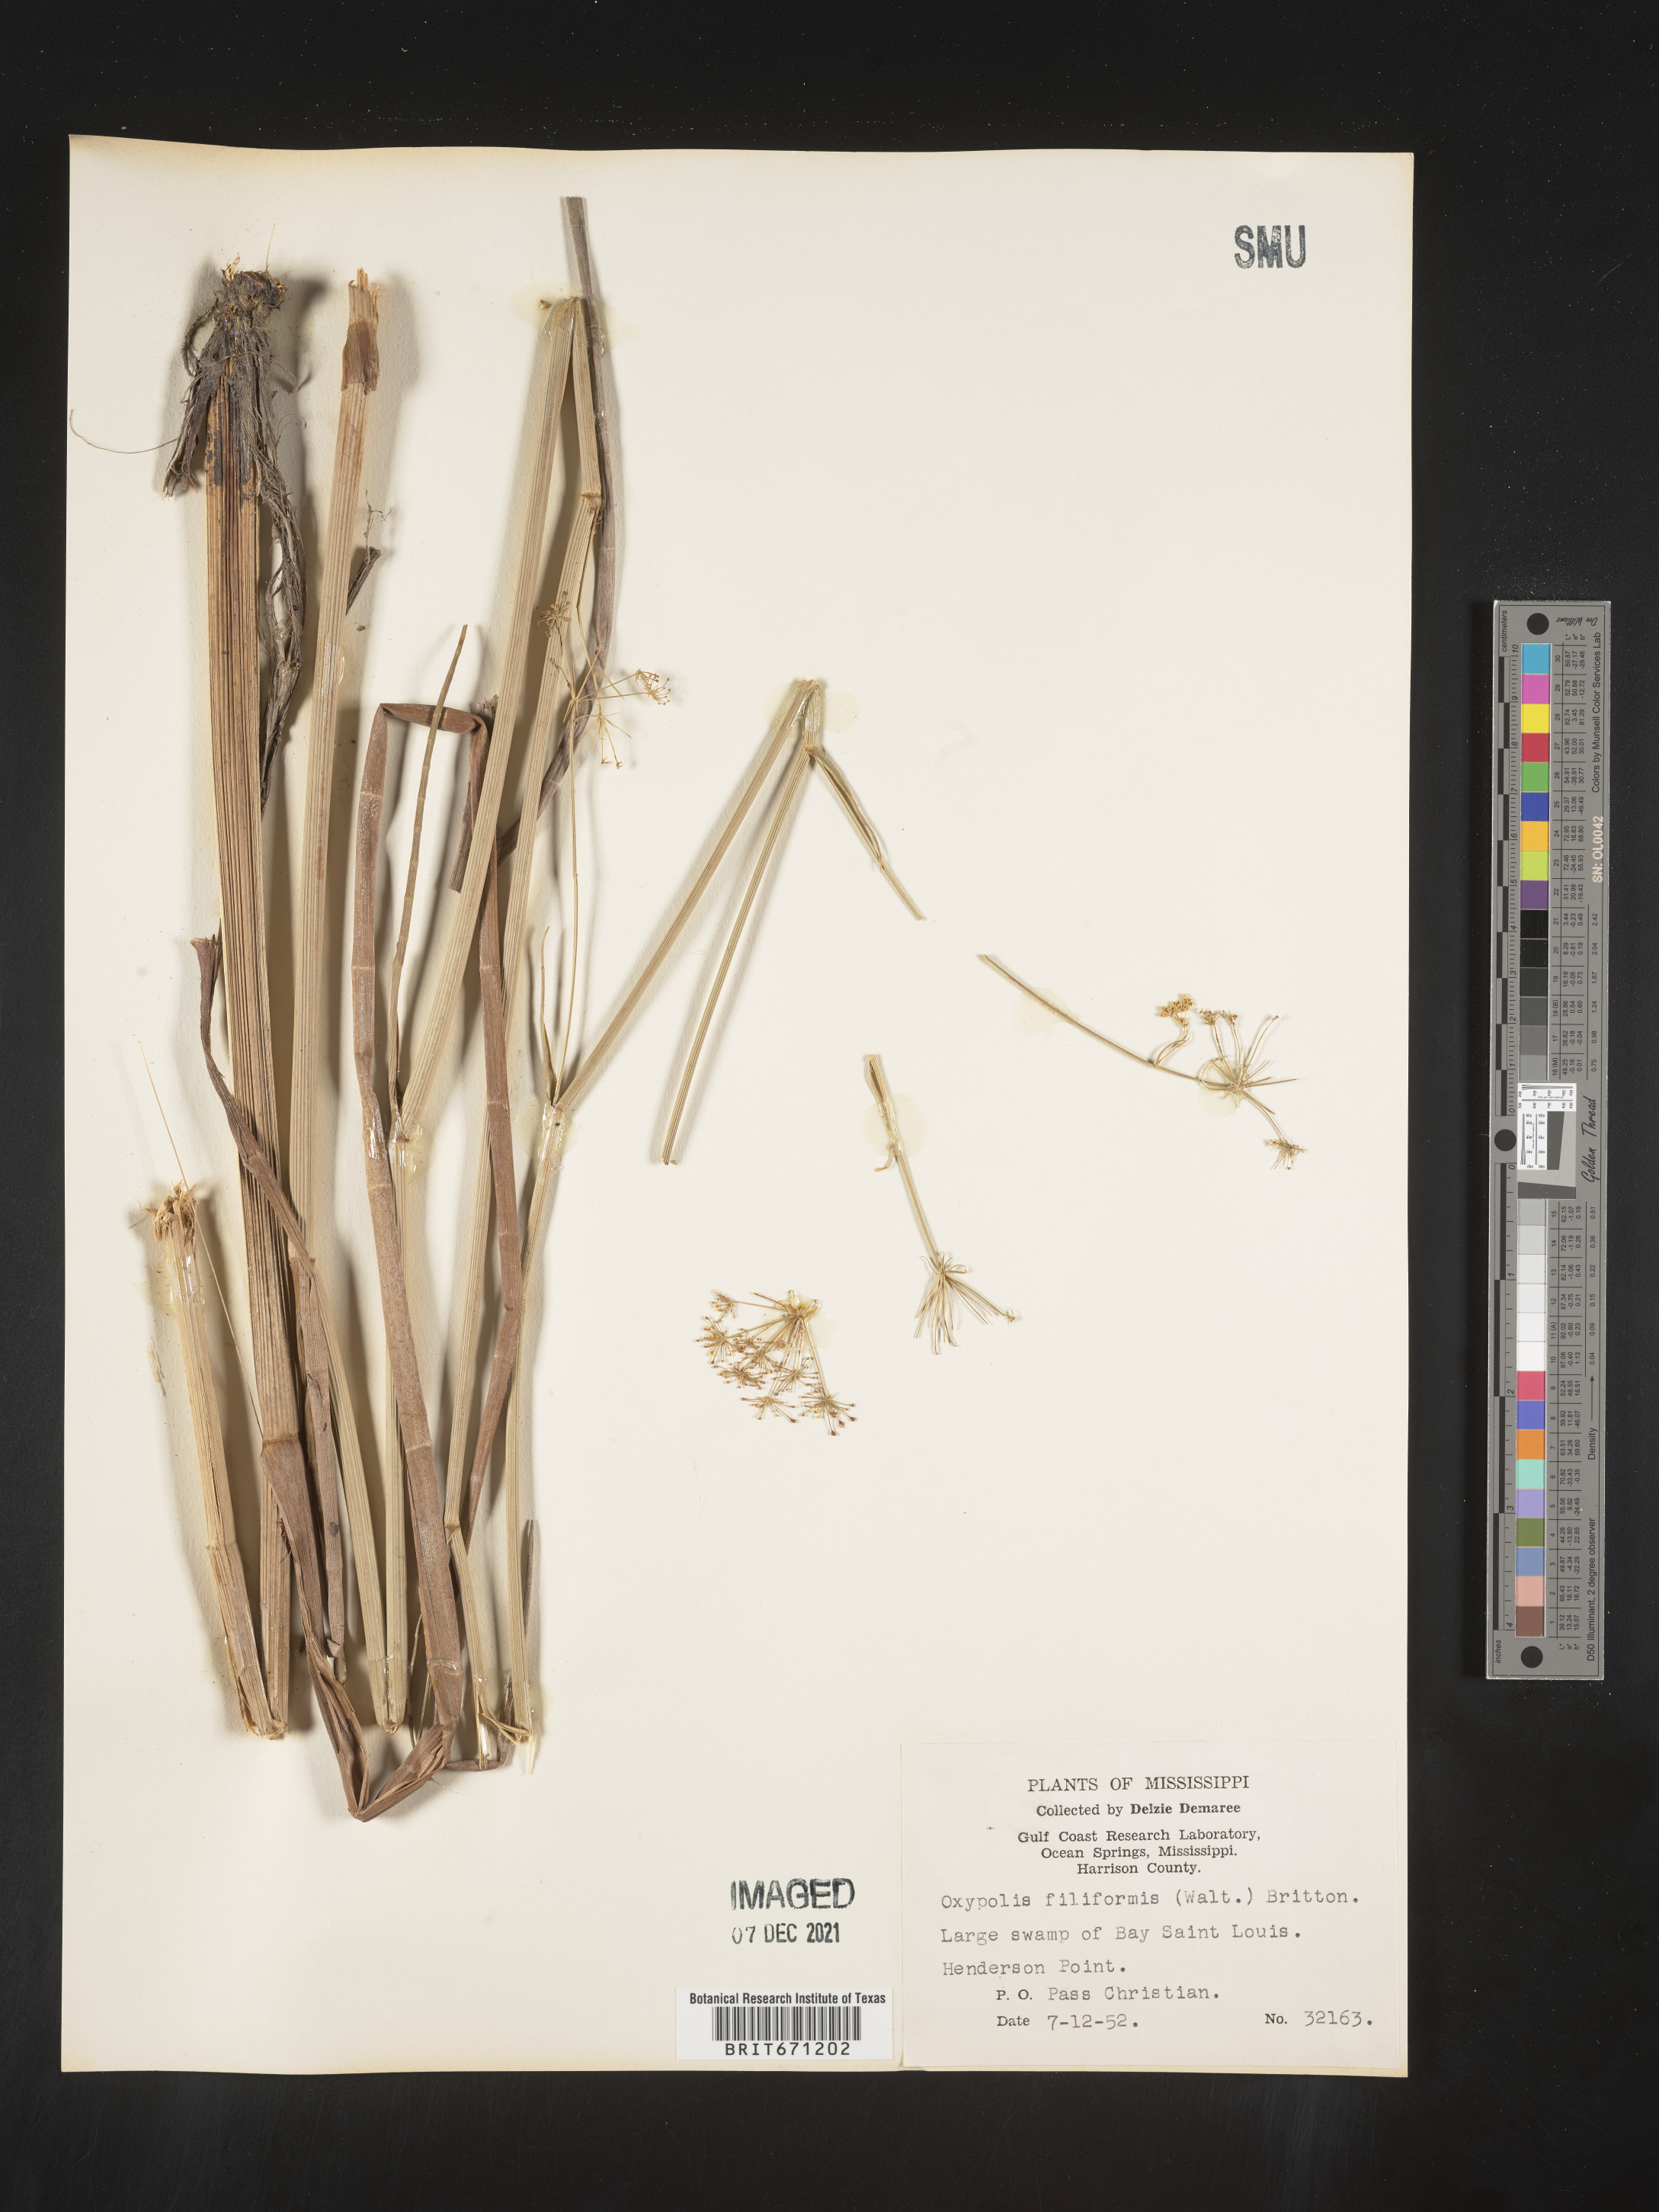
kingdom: Plantae
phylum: Tracheophyta
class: Magnoliopsida
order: Apiales
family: Apiaceae
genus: Tiedemannia
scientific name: Tiedemannia filiformis
